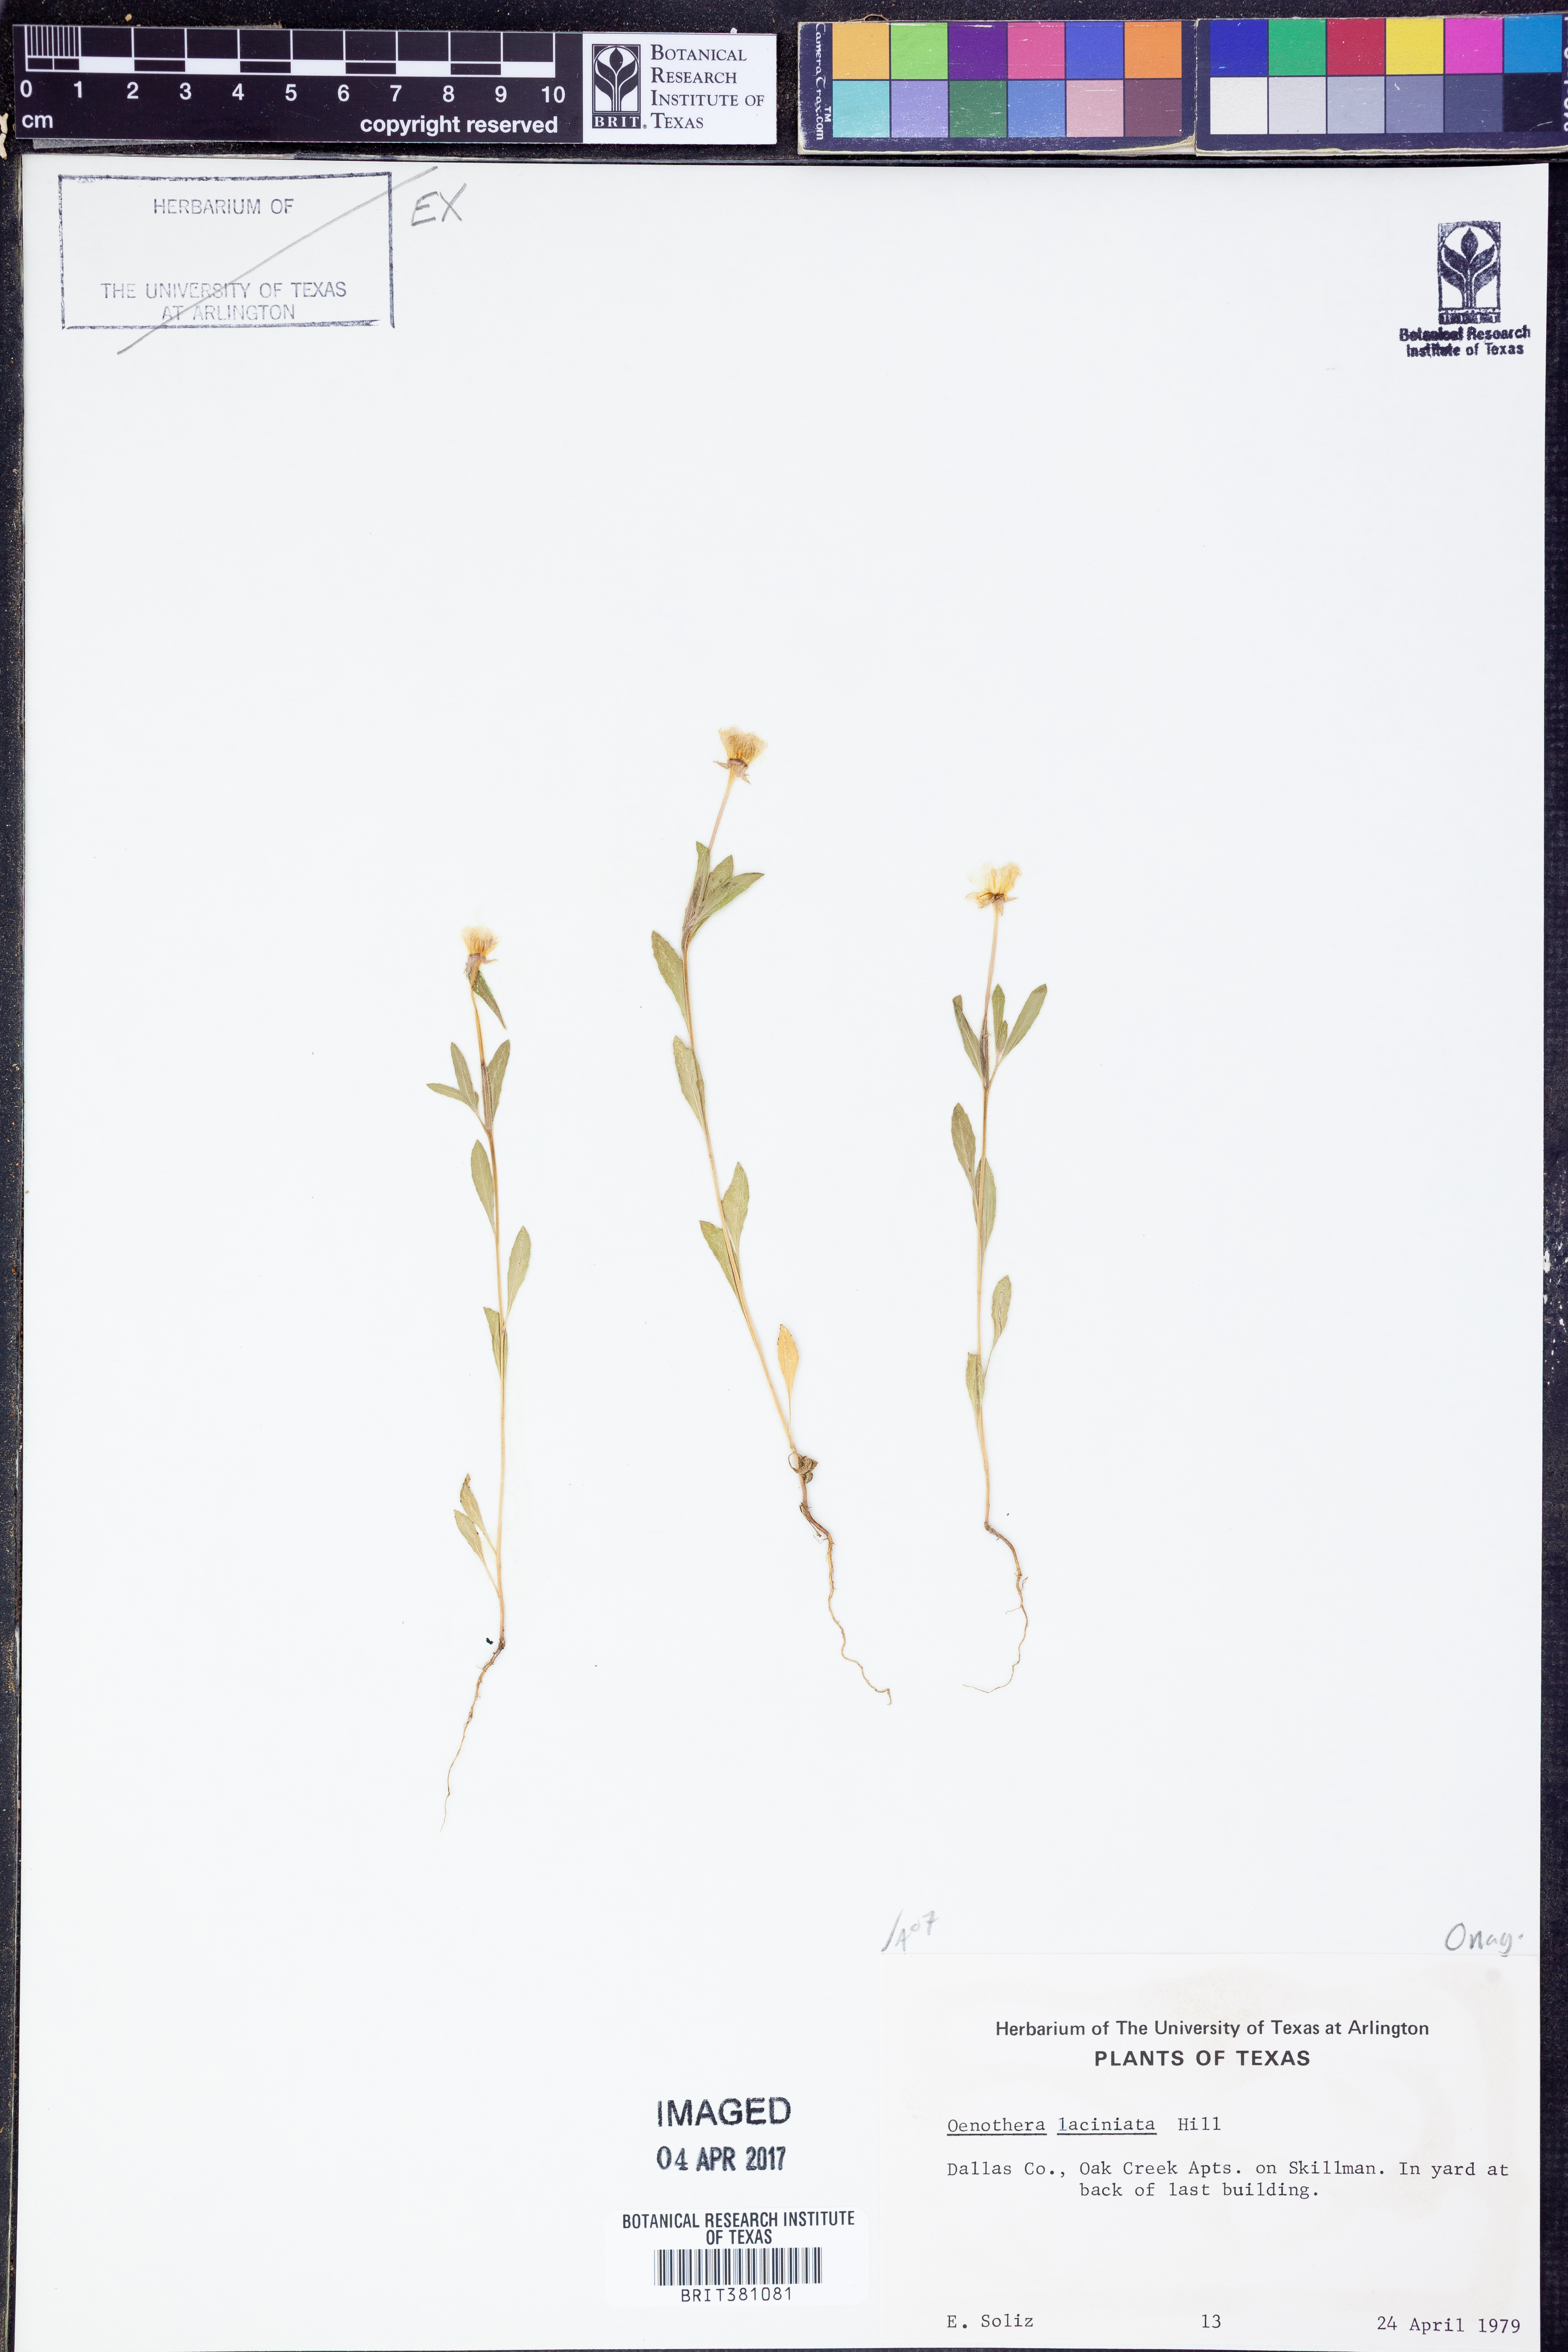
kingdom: Plantae
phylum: Tracheophyta
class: Magnoliopsida
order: Myrtales
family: Onagraceae
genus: Oenothera
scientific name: Oenothera laciniata
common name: Cut-leaved evening-primrose
